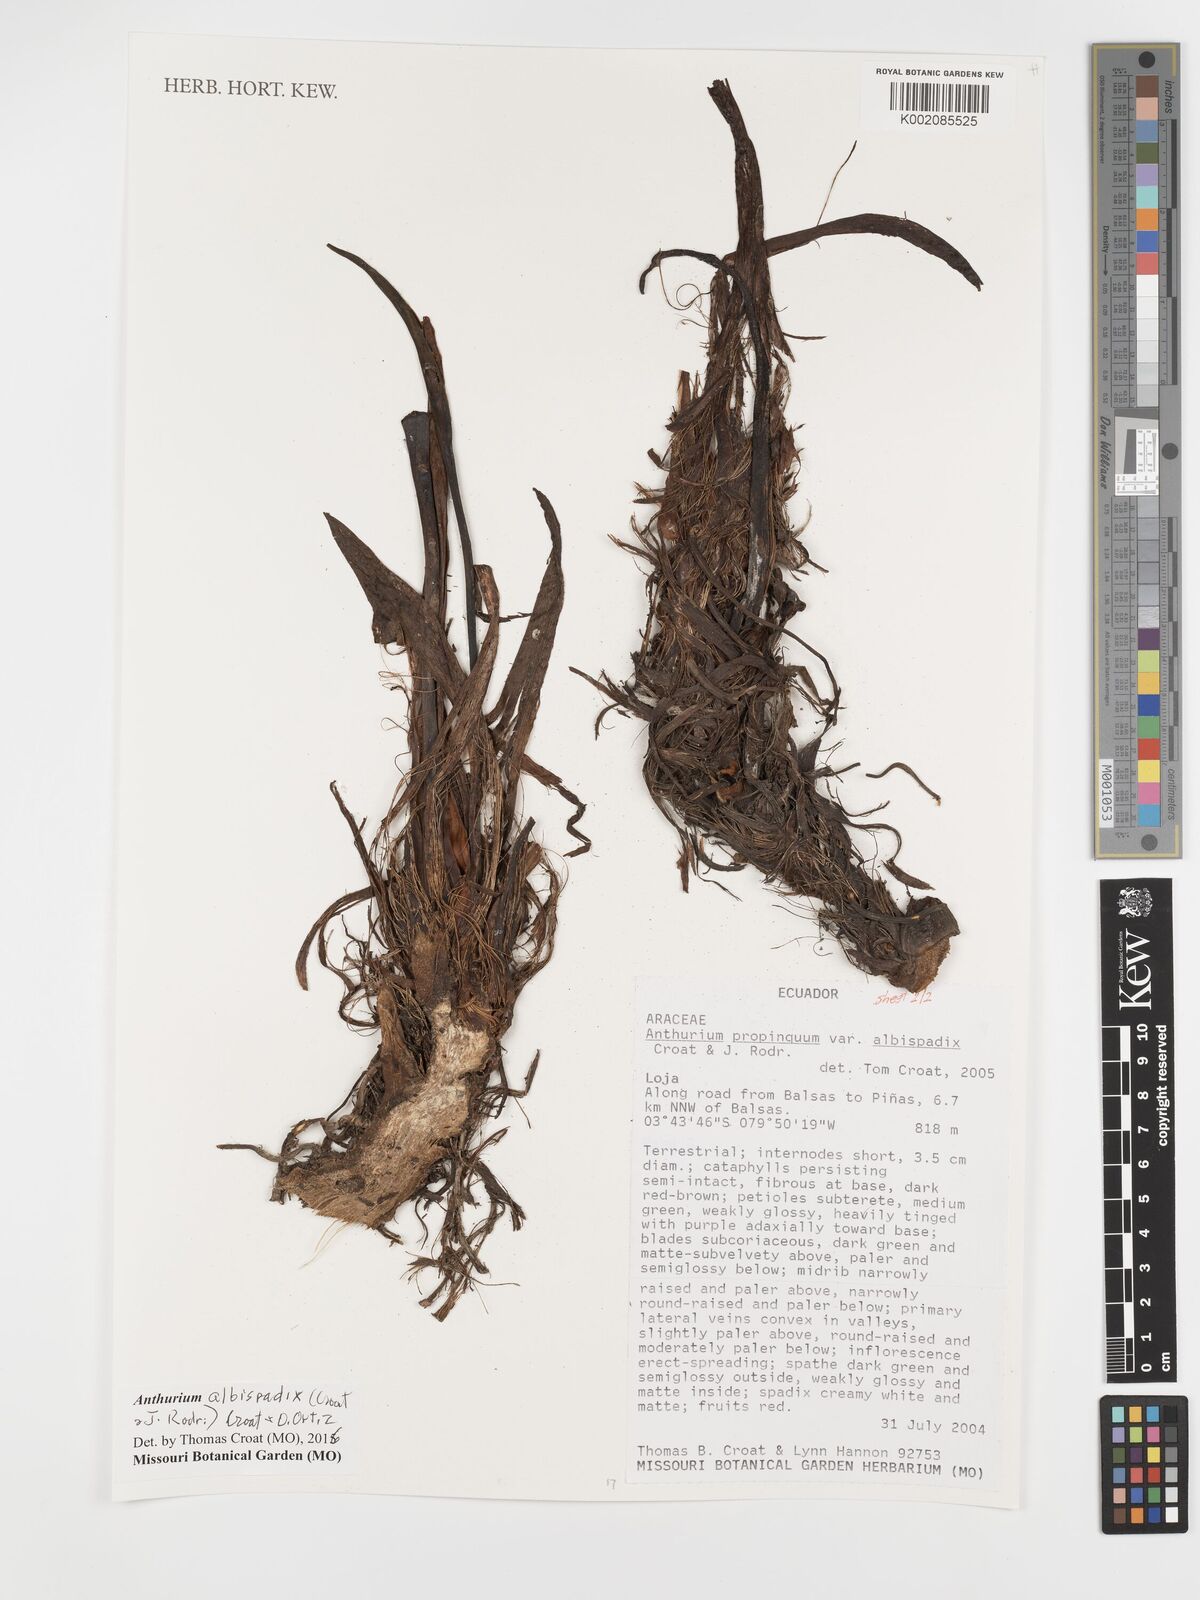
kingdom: Plantae
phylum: Tracheophyta
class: Liliopsida
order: Alismatales
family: Araceae
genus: Anthurium
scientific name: Anthurium albispadix
